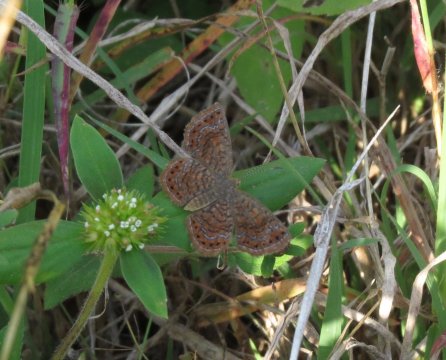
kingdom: Animalia
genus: Calephelis
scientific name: Calephelis
